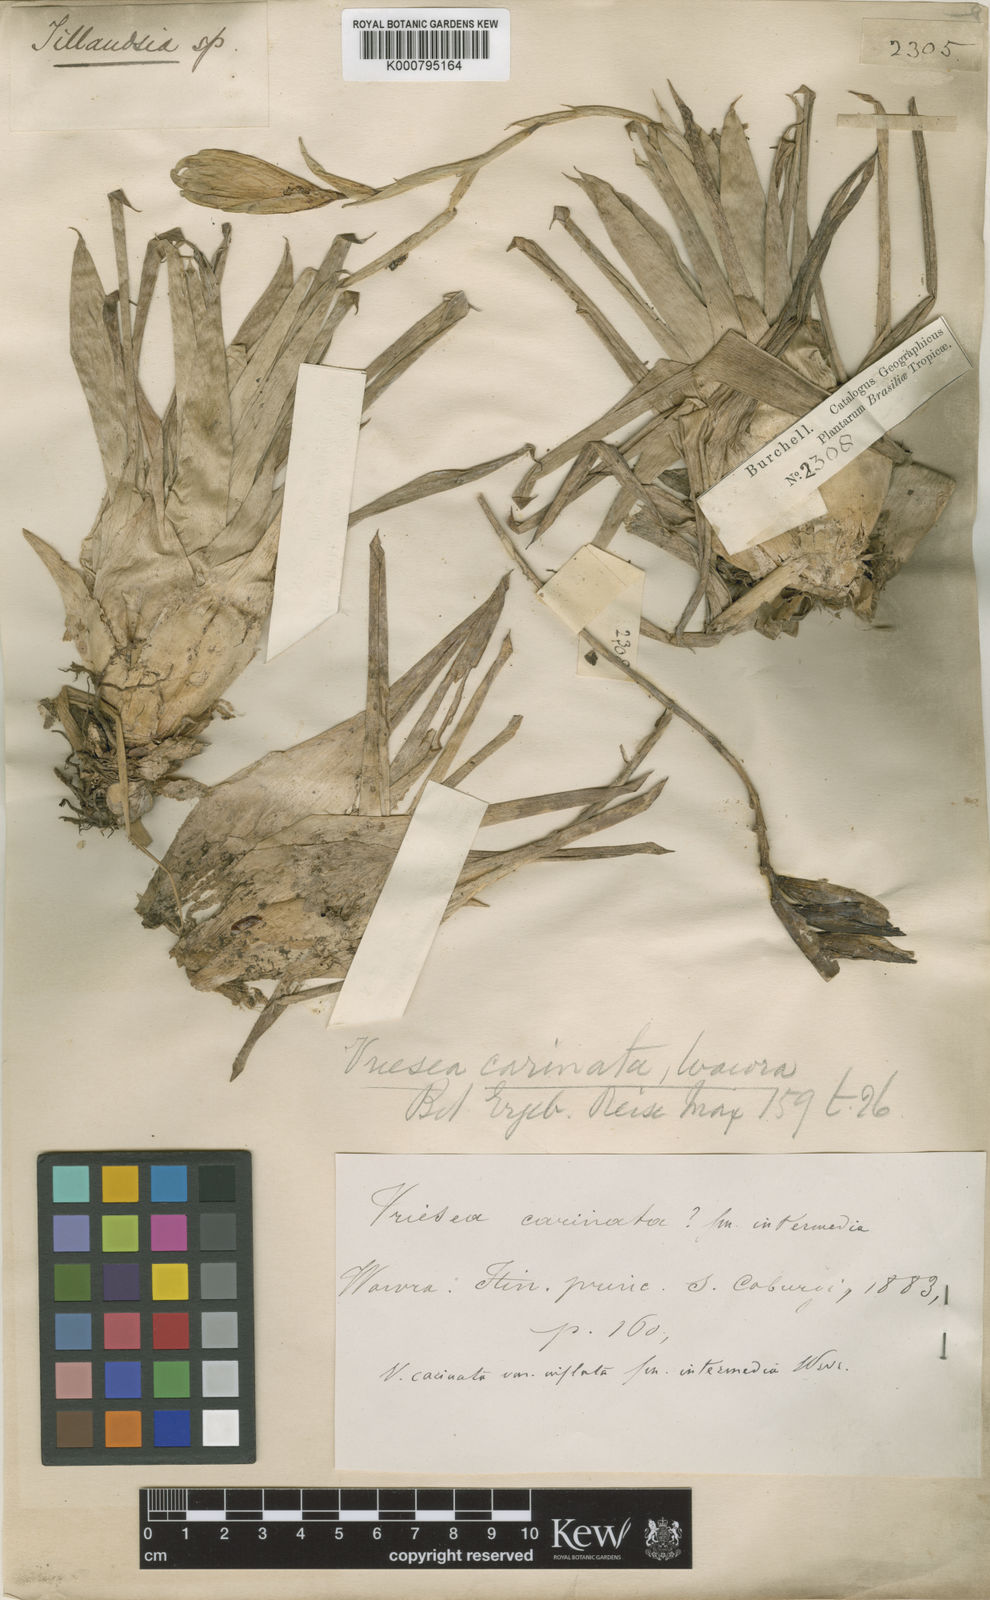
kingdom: Plantae
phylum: Tracheophyta
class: Liliopsida
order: Poales
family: Bromeliaceae
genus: Vriesea
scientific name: Vriesea carinata
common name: Lobster-claws
